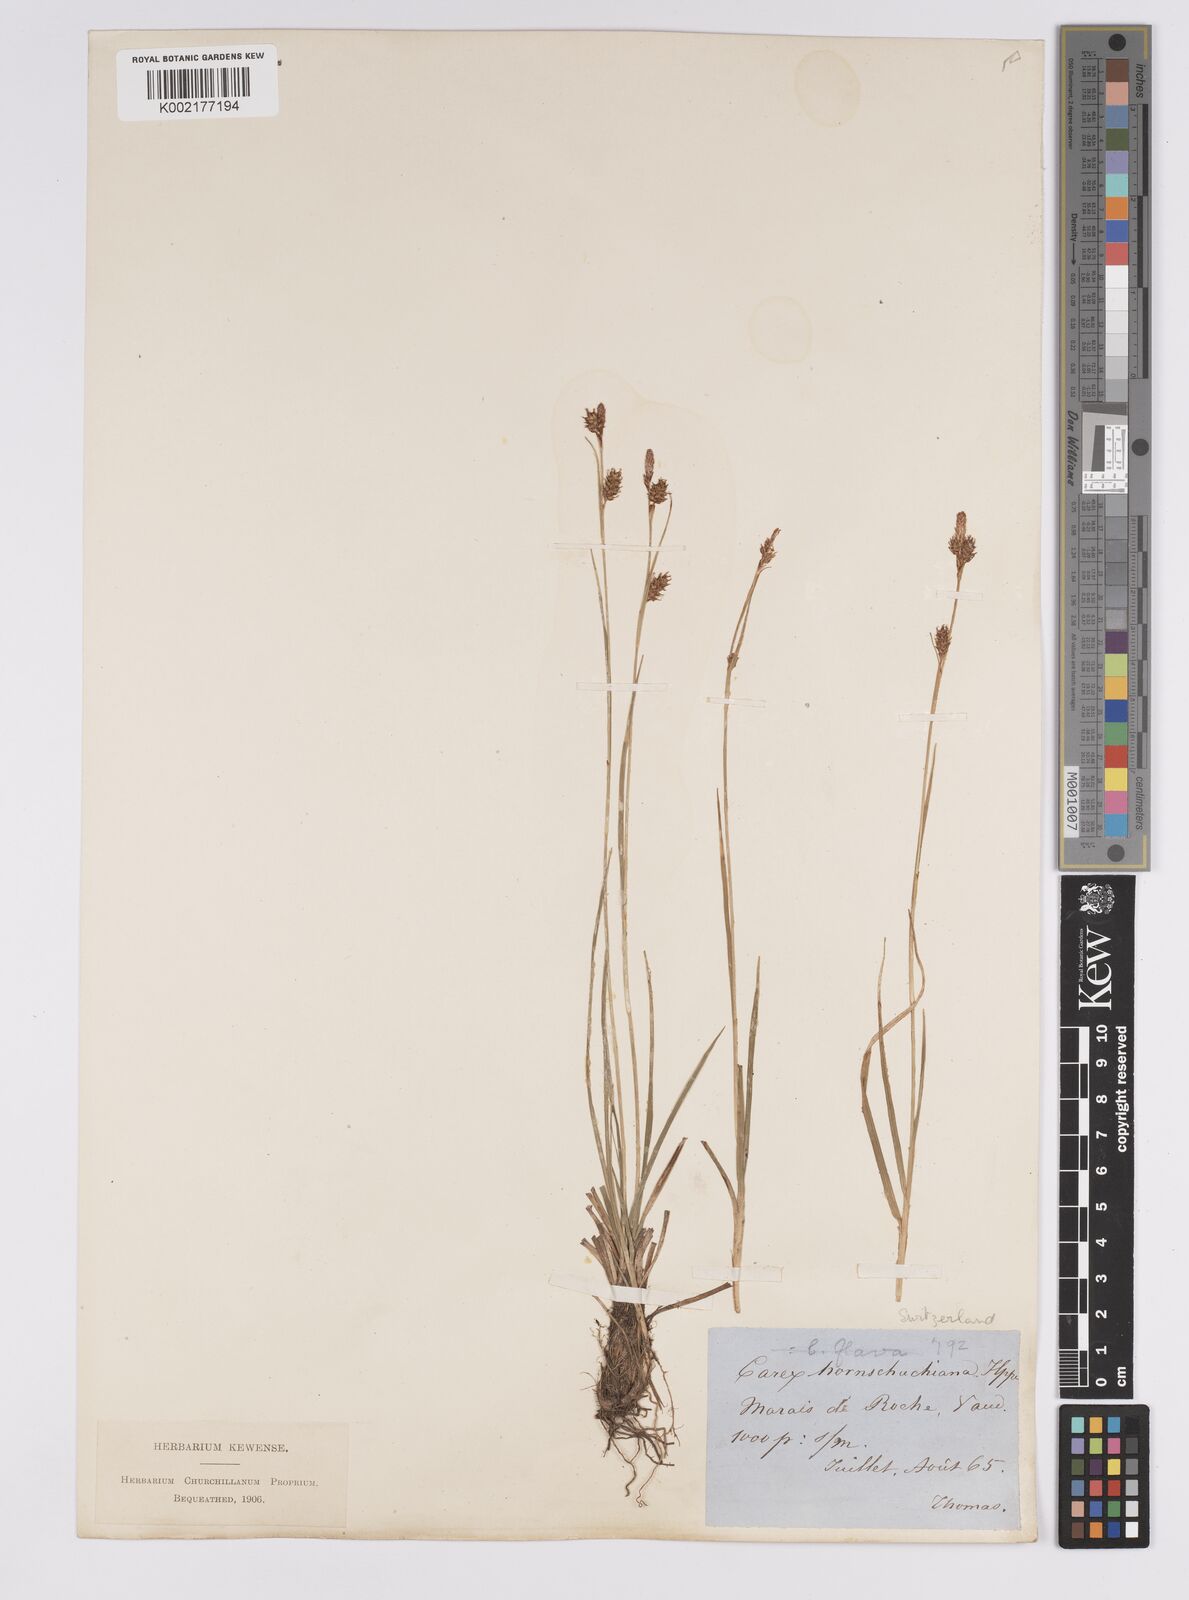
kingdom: Plantae
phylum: Tracheophyta
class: Liliopsida
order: Poales
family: Cyperaceae
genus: Carex
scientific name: Carex hostiana
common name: Tawny sedge
